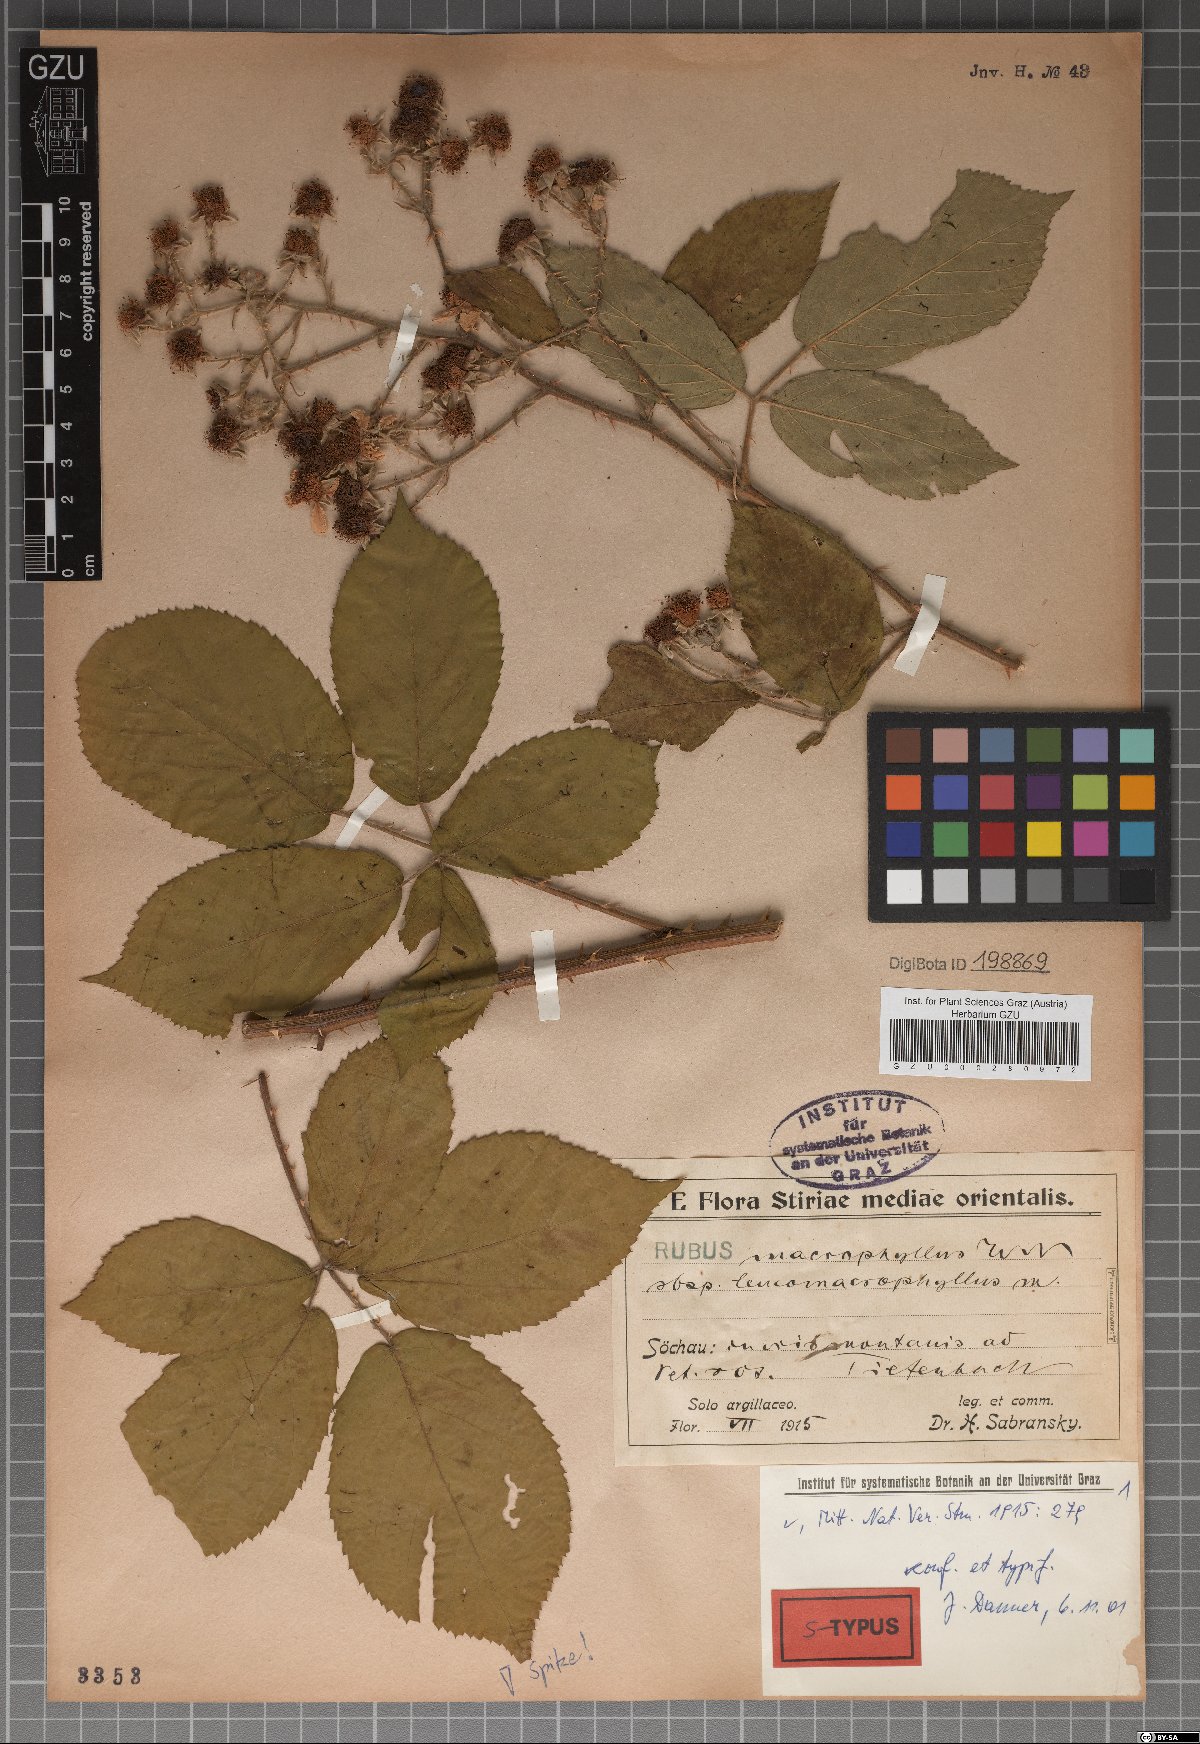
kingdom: Plantae
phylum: Tracheophyta
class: Magnoliopsida
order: Rosales
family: Rosaceae
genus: Rubus
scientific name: Rubus macrophyllus
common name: Largeleaf blackberry
